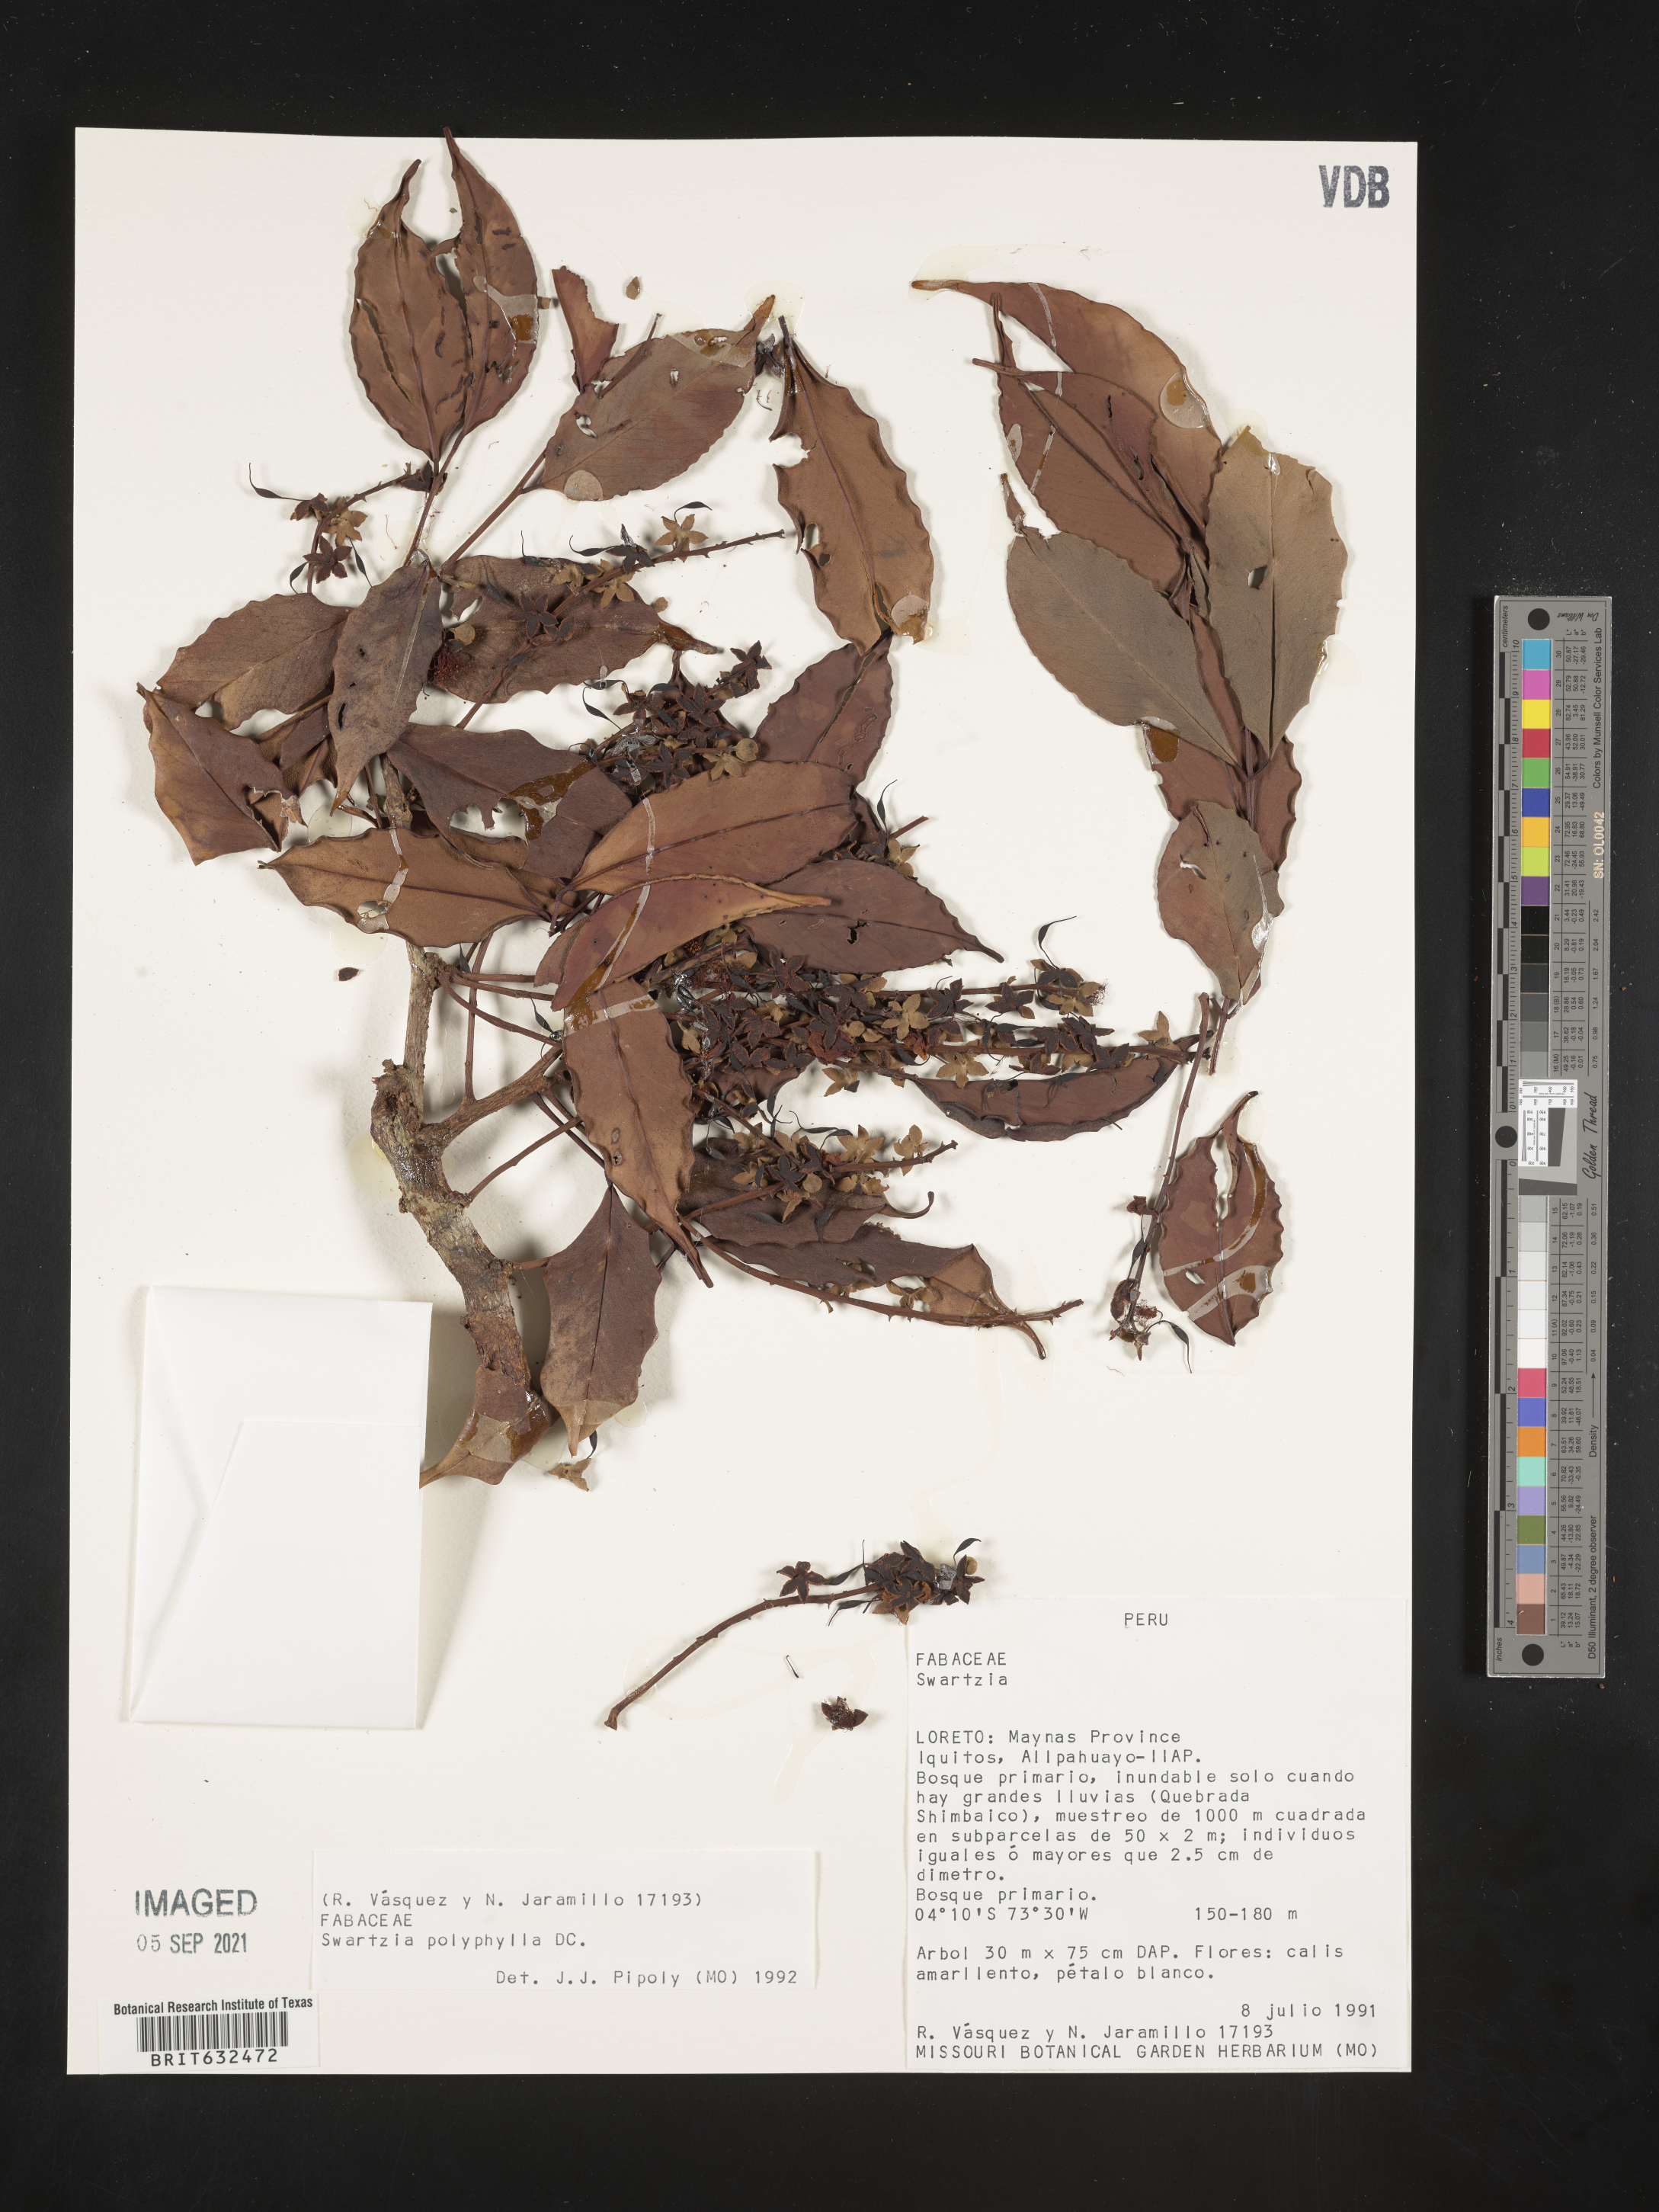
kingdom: Plantae
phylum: Tracheophyta
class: Magnoliopsida
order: Fabales
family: Fabaceae
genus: Swartzia
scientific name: Swartzia
